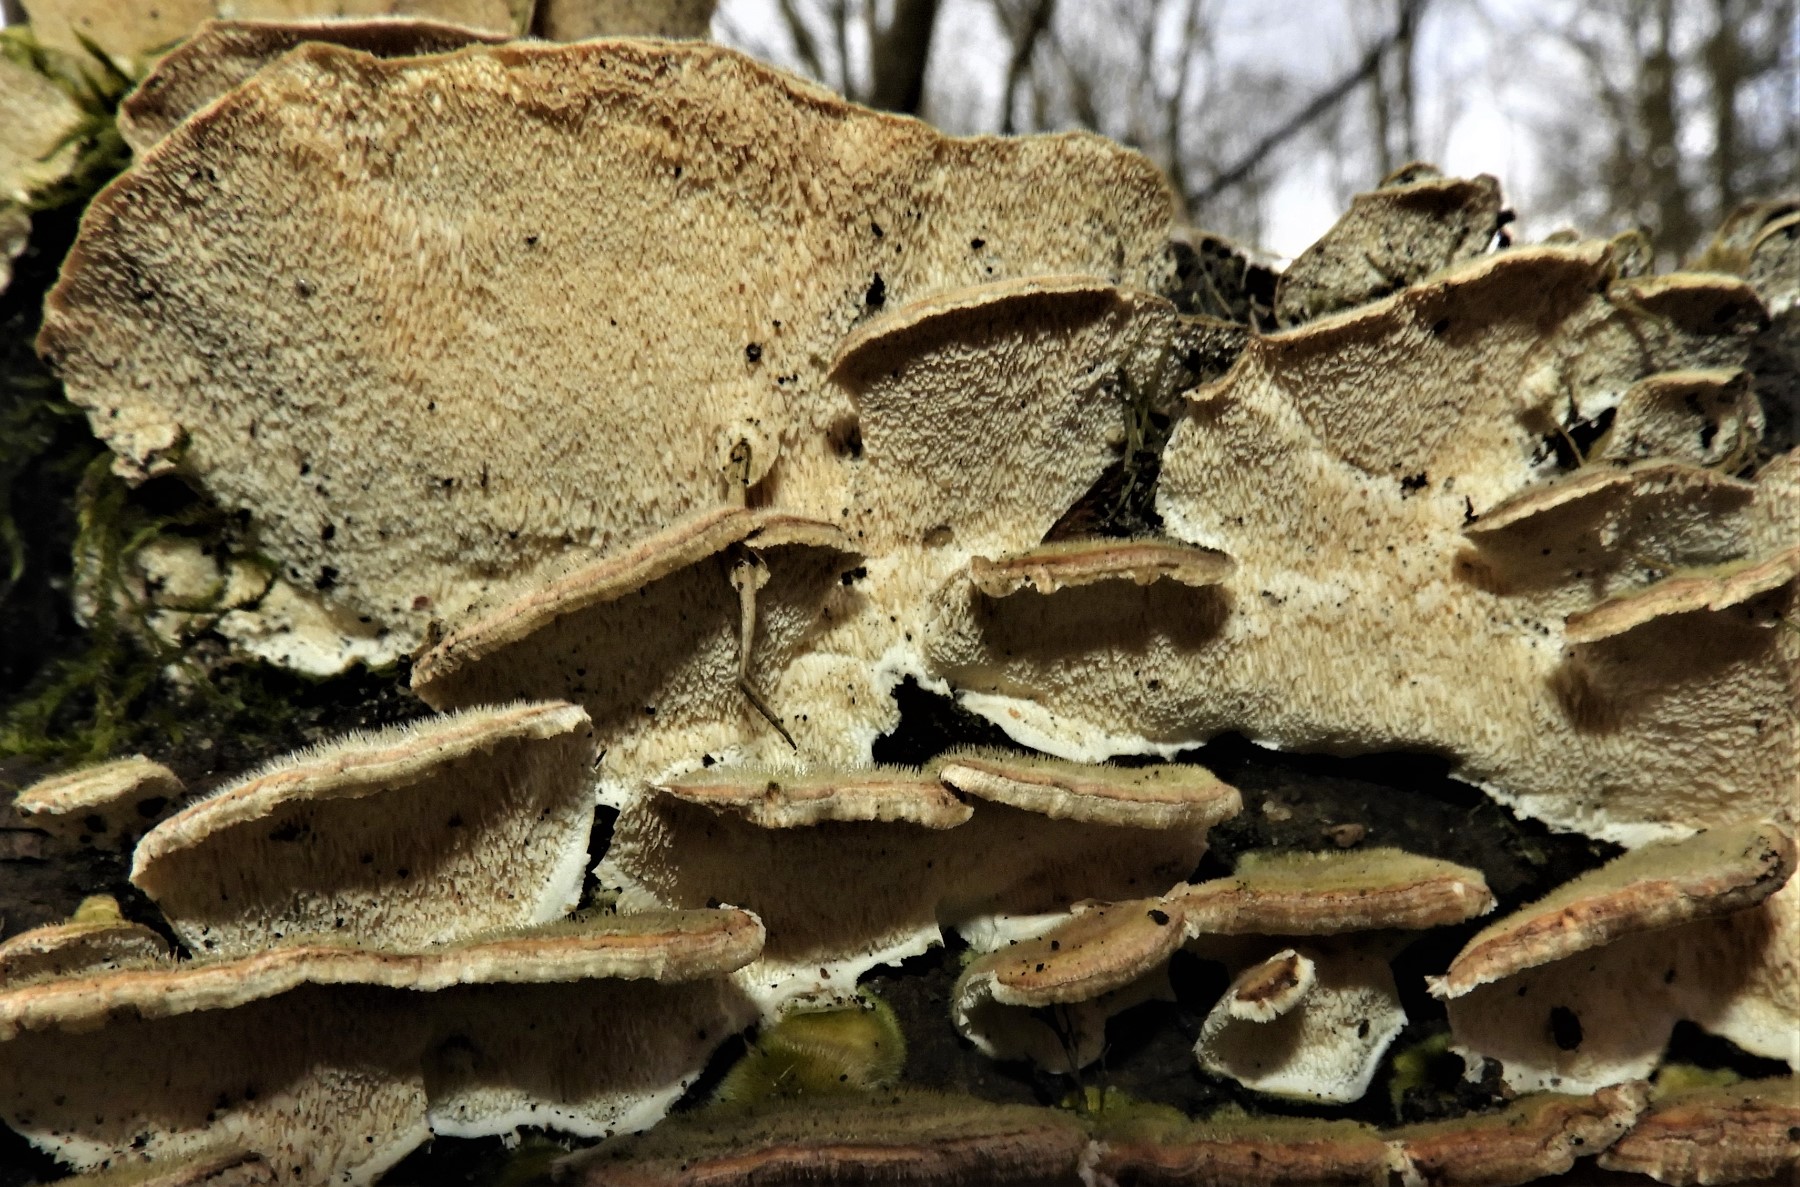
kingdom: Fungi
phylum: Basidiomycota
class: Agaricomycetes
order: Polyporales
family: Polyporaceae
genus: Trametes
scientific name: Trametes versicolor
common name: broget læderporesvamp
